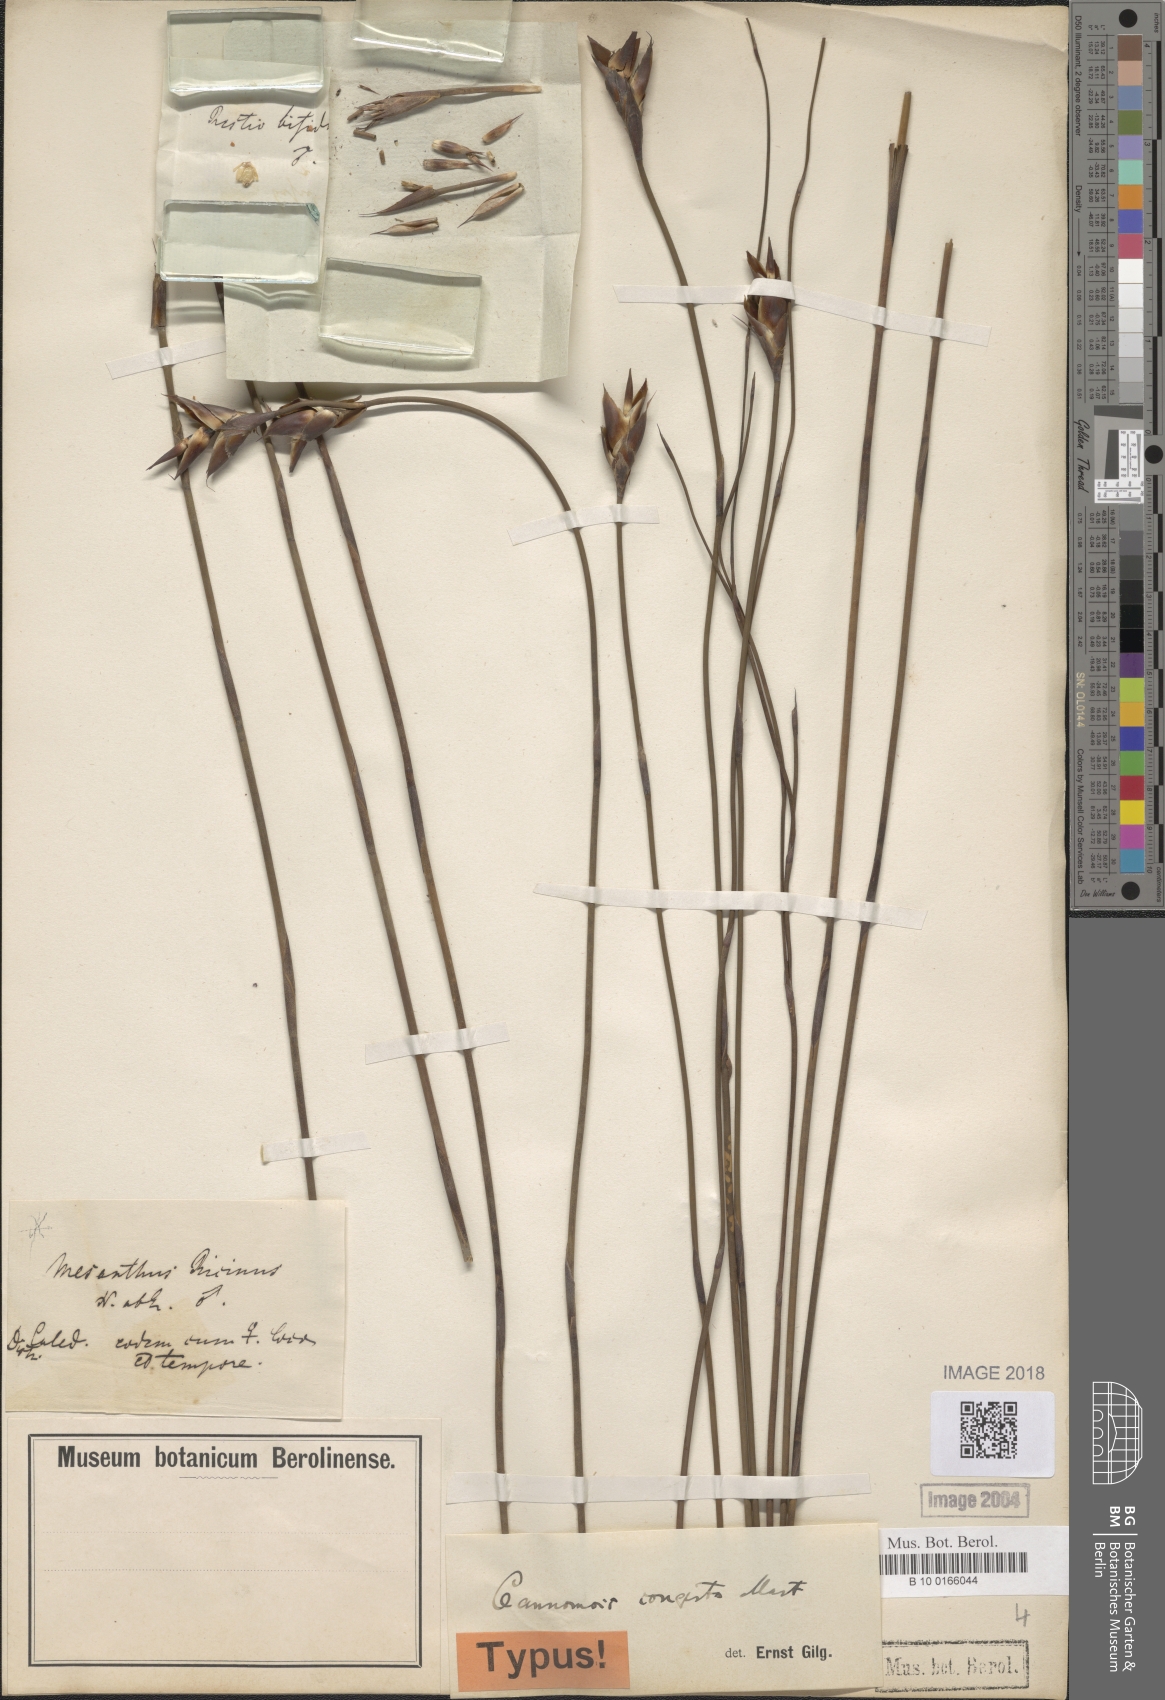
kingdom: Plantae
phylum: Tracheophyta
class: Liliopsida
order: Poales
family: Restionaceae
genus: Cannomois
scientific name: Cannomois congesta
